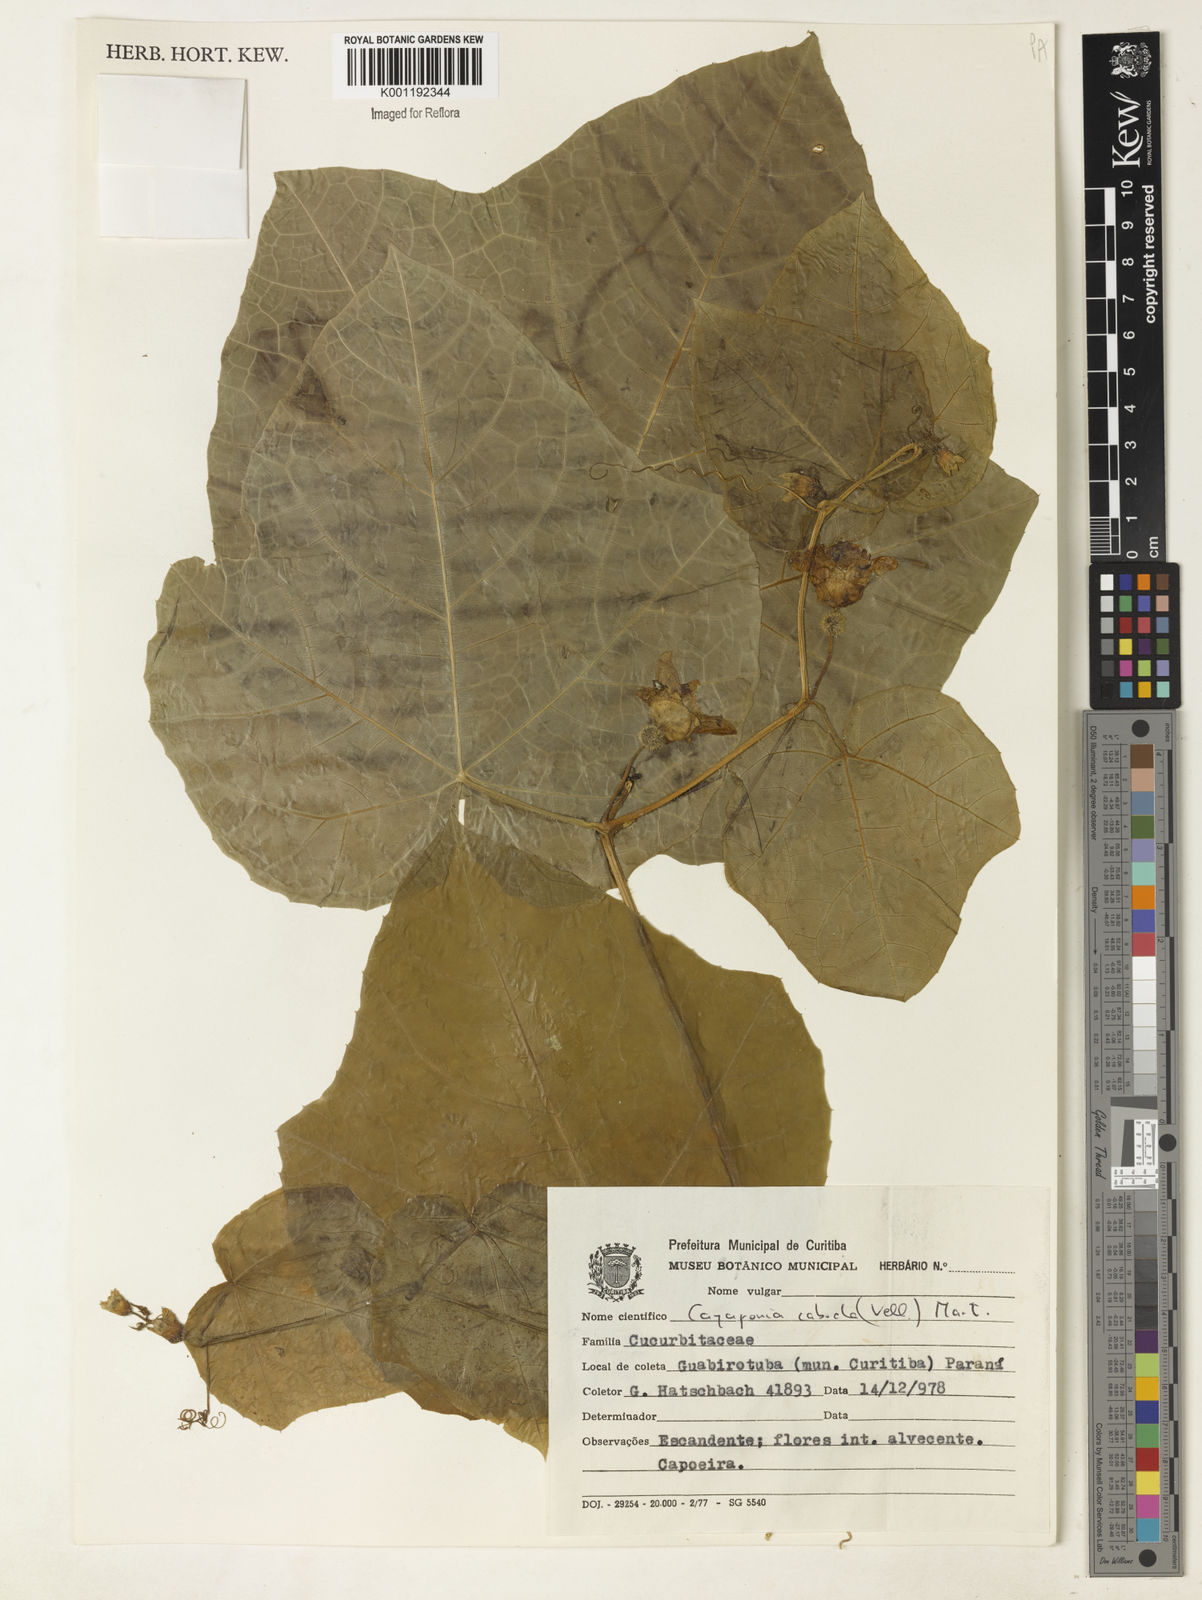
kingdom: Plantae
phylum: Tracheophyta
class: Magnoliopsida
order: Cucurbitales
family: Cucurbitaceae
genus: Cayaponia
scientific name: Cayaponia cabocla
